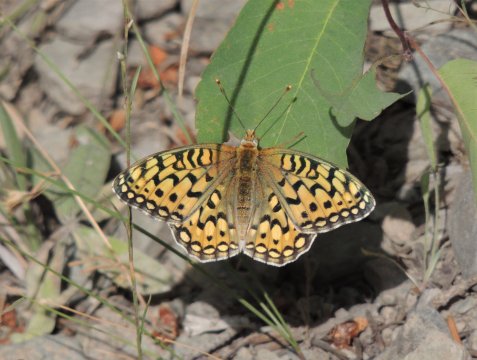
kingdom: Animalia
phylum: Arthropoda
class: Insecta
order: Lepidoptera
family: Nymphalidae
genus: Speyeria
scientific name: Speyeria coronis
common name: Coronis Fritillary
